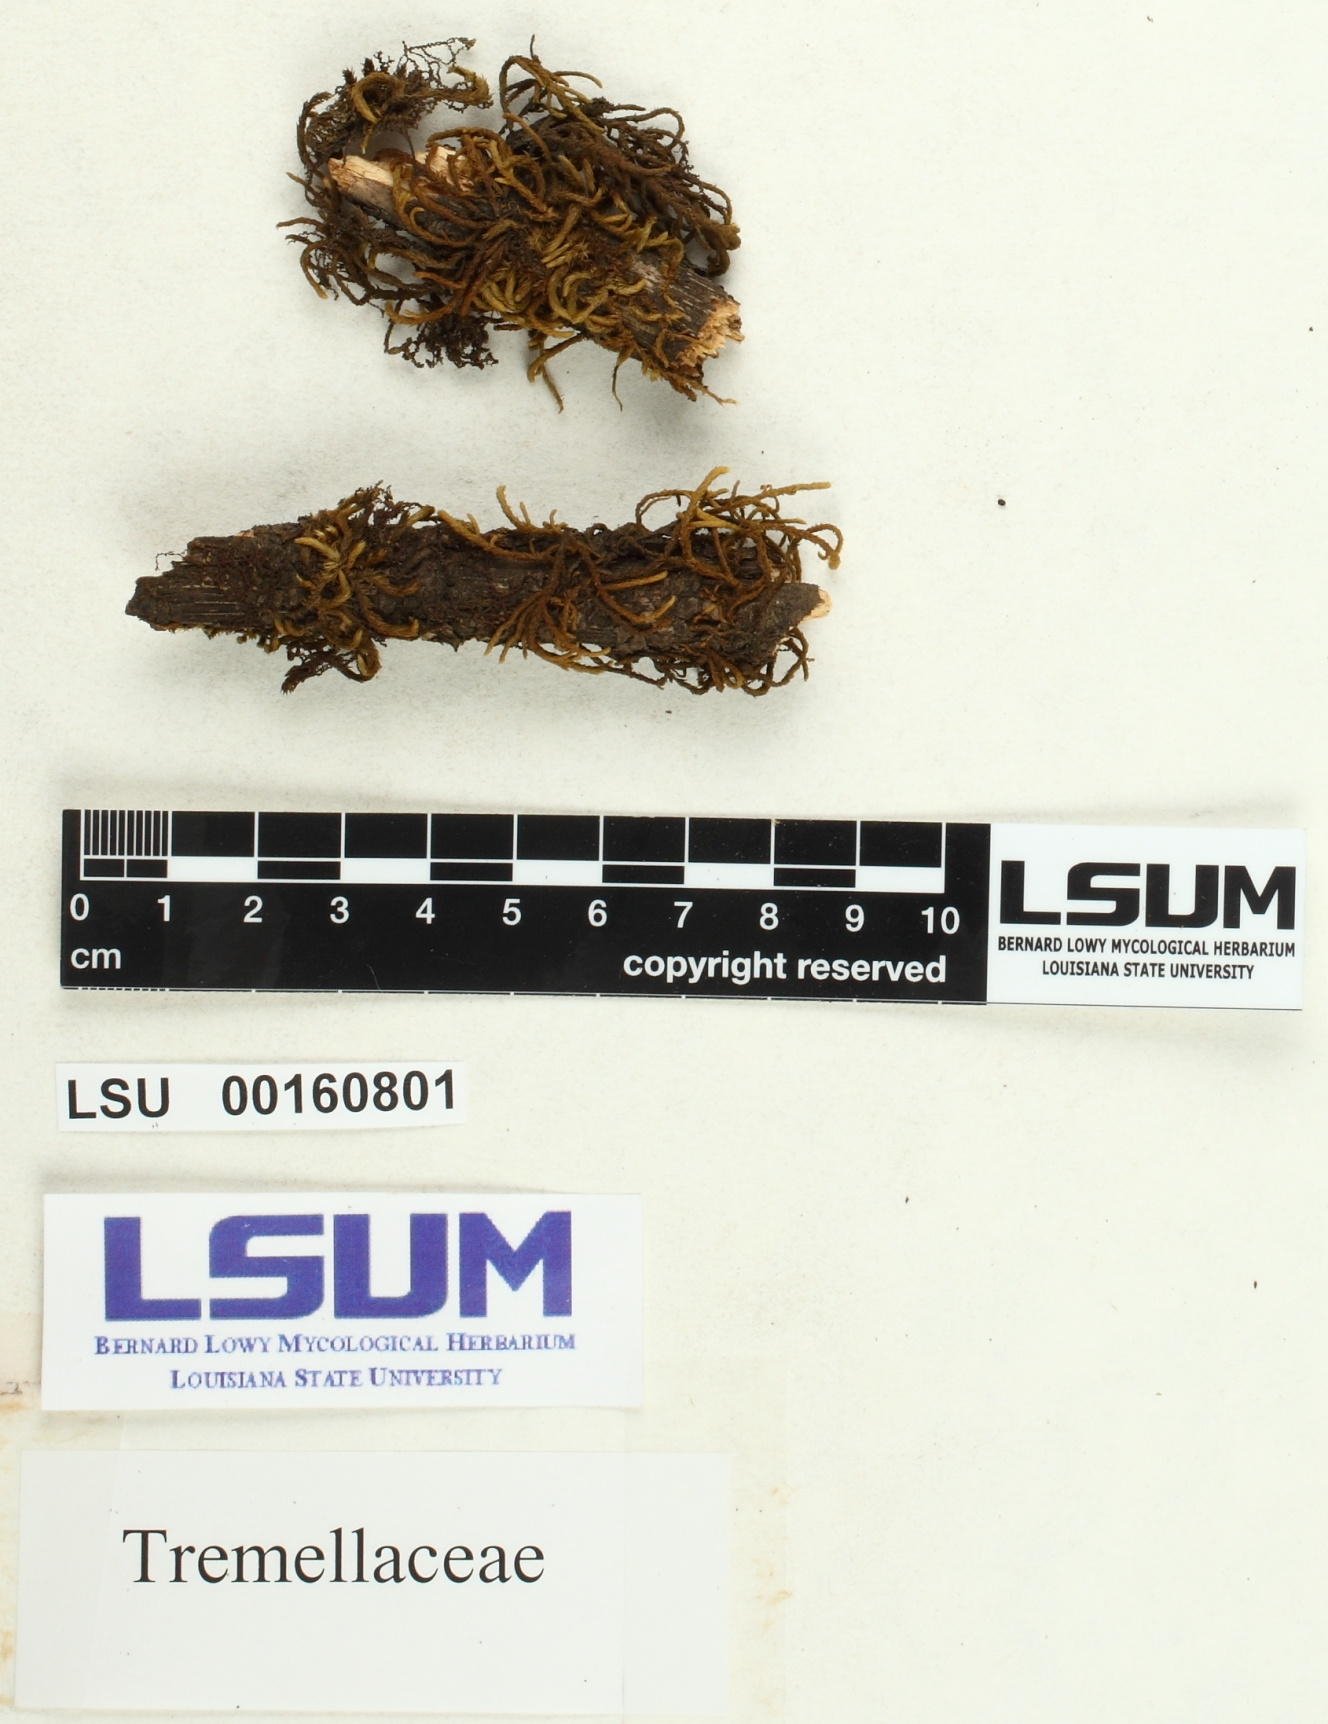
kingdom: Fungi
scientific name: Fungi
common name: Fungi
